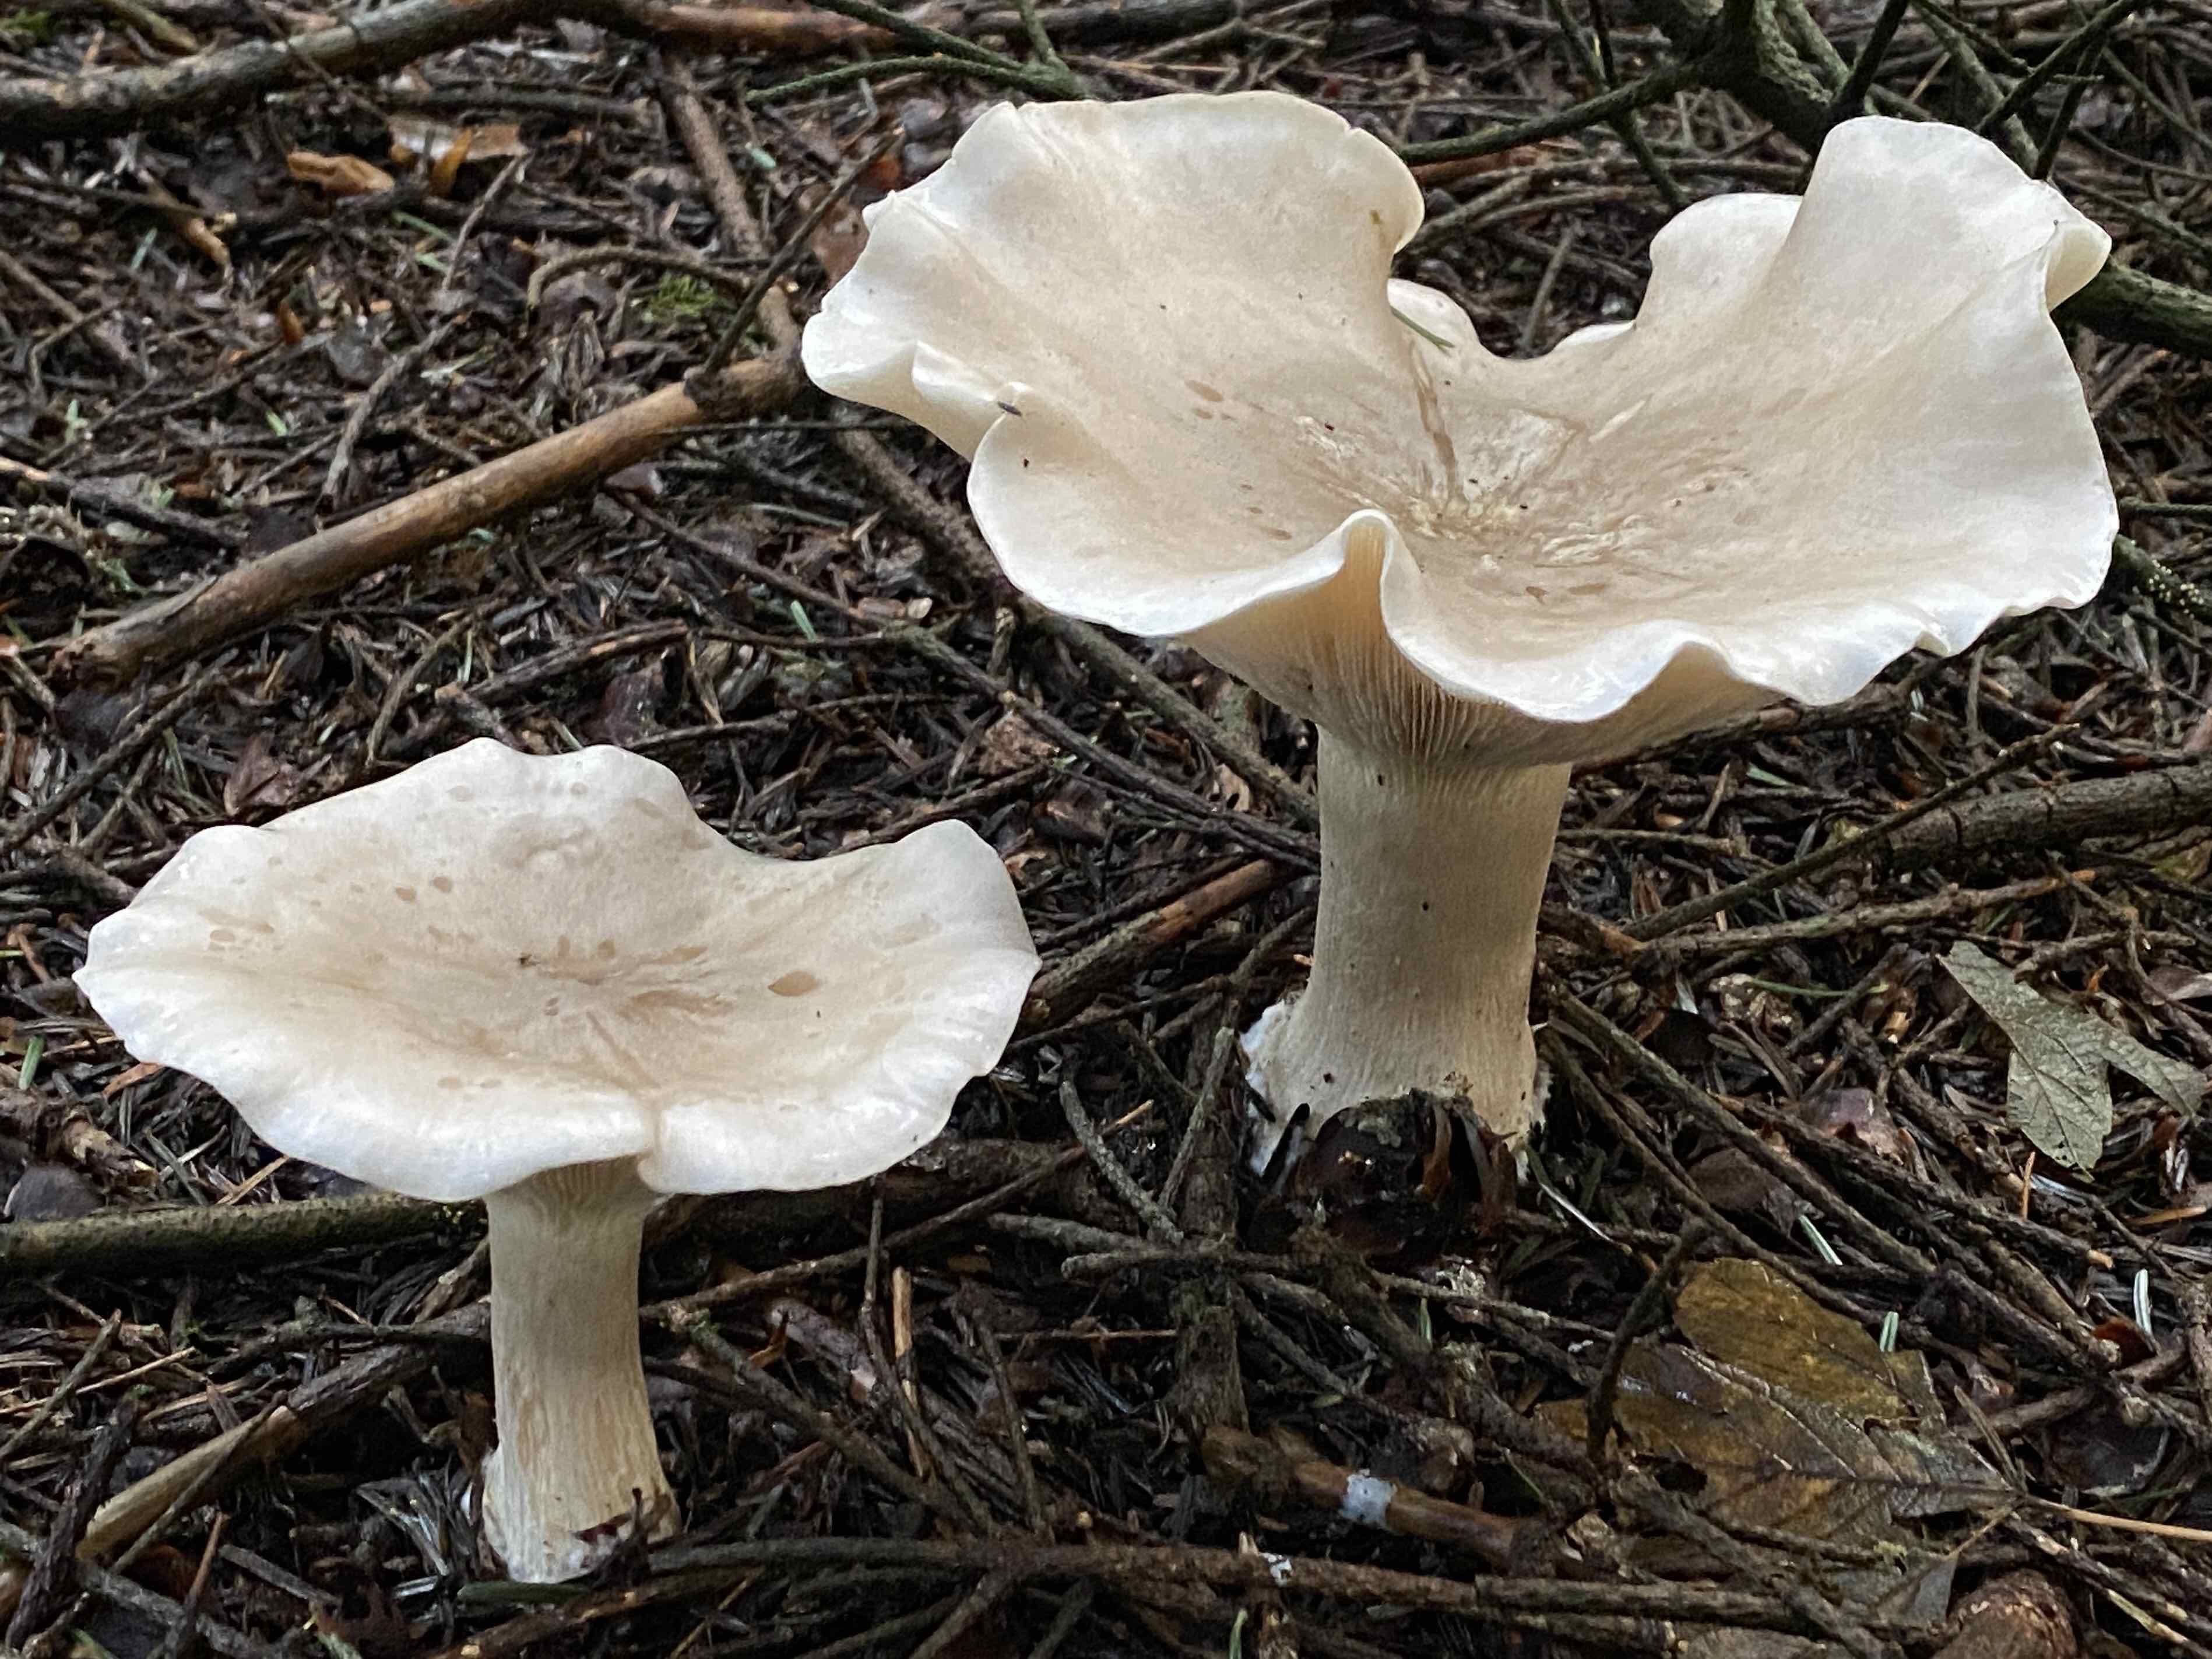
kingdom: Fungi
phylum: Basidiomycota
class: Agaricomycetes
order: Agaricales
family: Tricholomataceae
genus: Clitocybe
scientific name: Clitocybe nebularis
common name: tåge-tragthat
